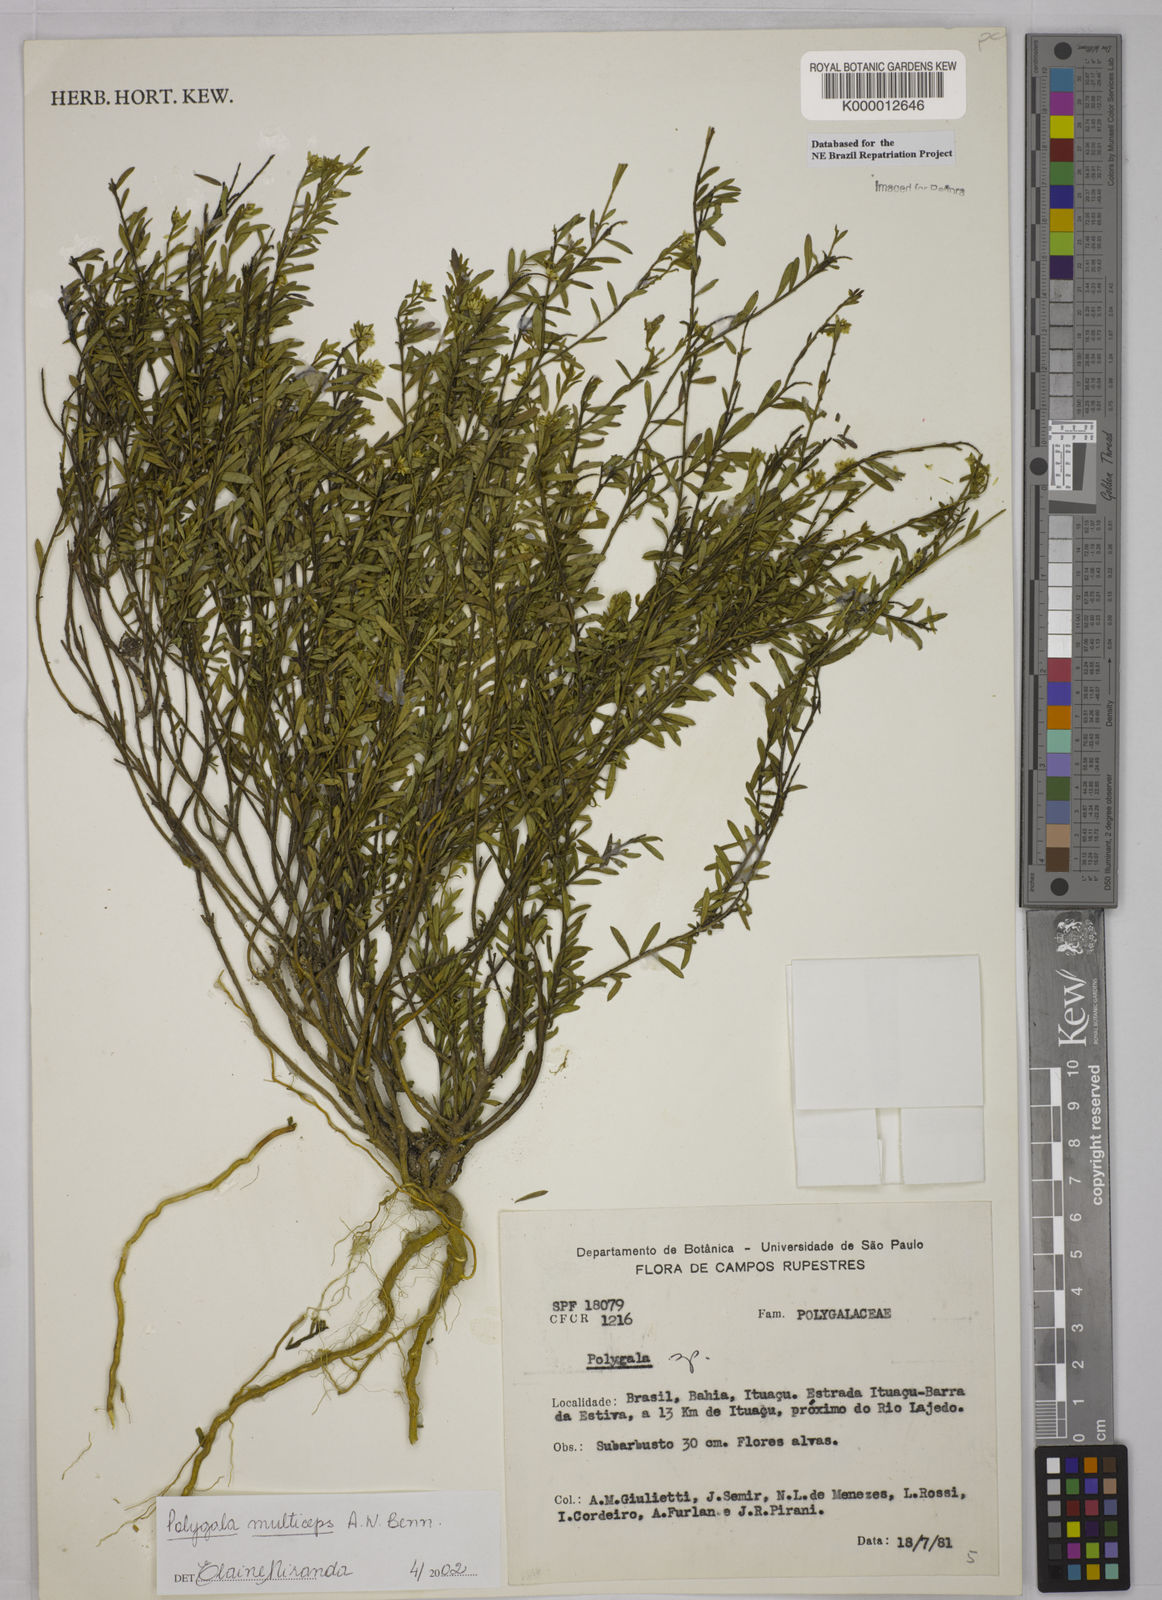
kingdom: Plantae
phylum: Tracheophyta
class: Magnoliopsida
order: Fabales
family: Polygalaceae
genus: Polygala
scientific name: Polygala
